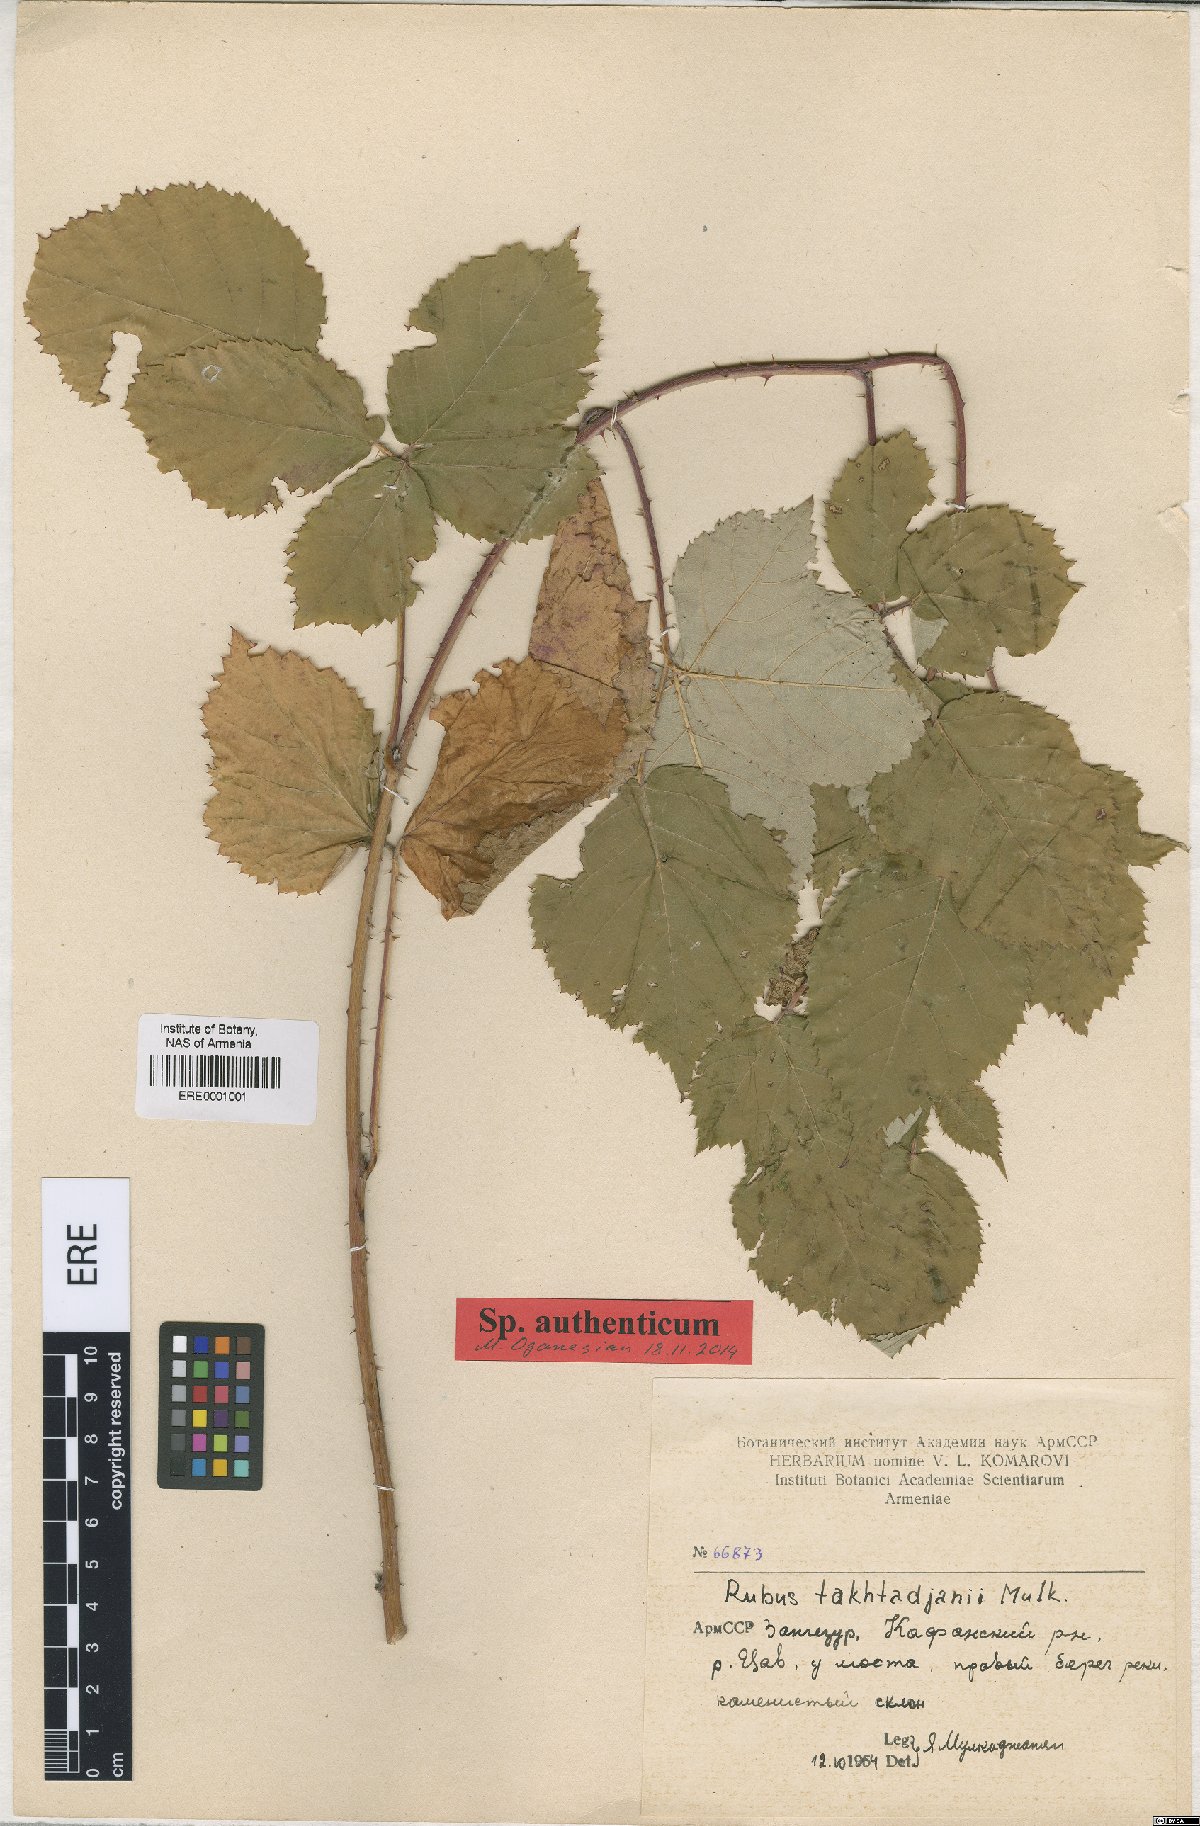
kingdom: Plantae
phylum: Tracheophyta
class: Magnoliopsida
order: Rosales
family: Rosaceae
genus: Rubus
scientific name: Rubus takhtadjanii
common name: Takhtadjan's blackberry
